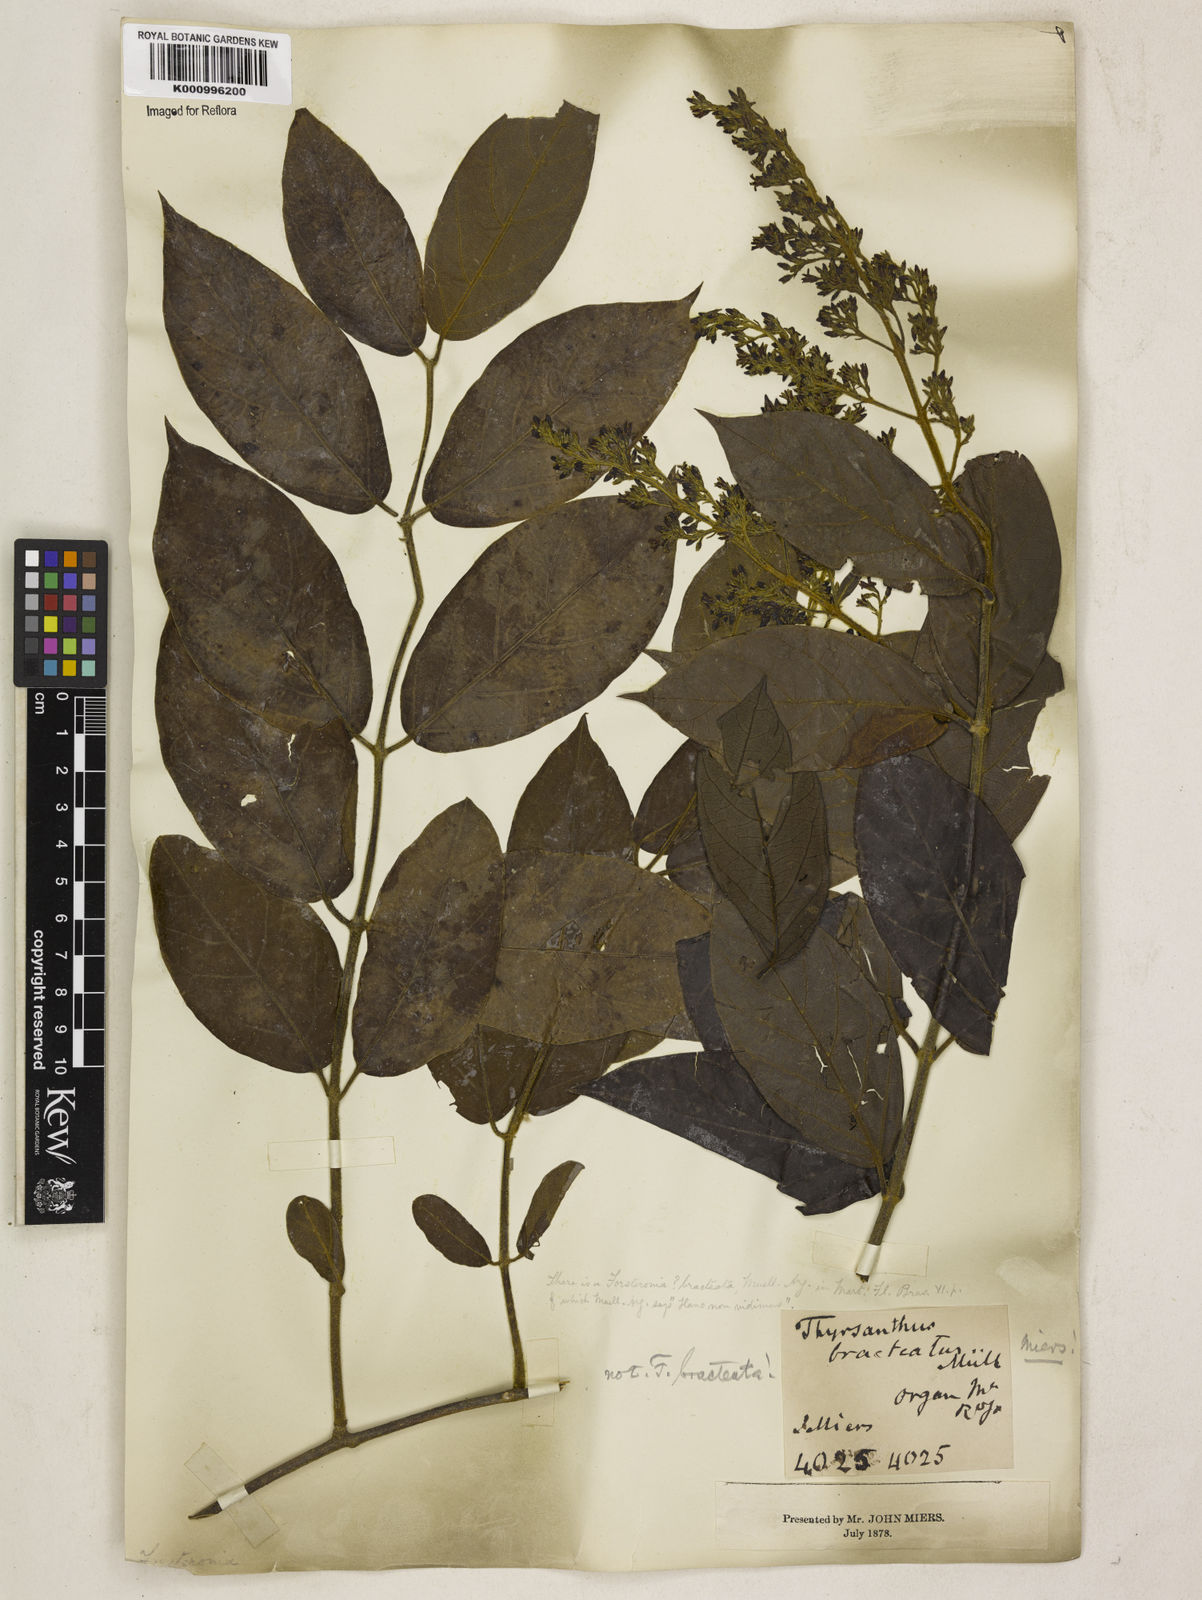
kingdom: Plantae
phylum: Tracheophyta
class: Magnoliopsida
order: Gentianales
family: Apocynaceae
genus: Forsteronia
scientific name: Forsteronia
